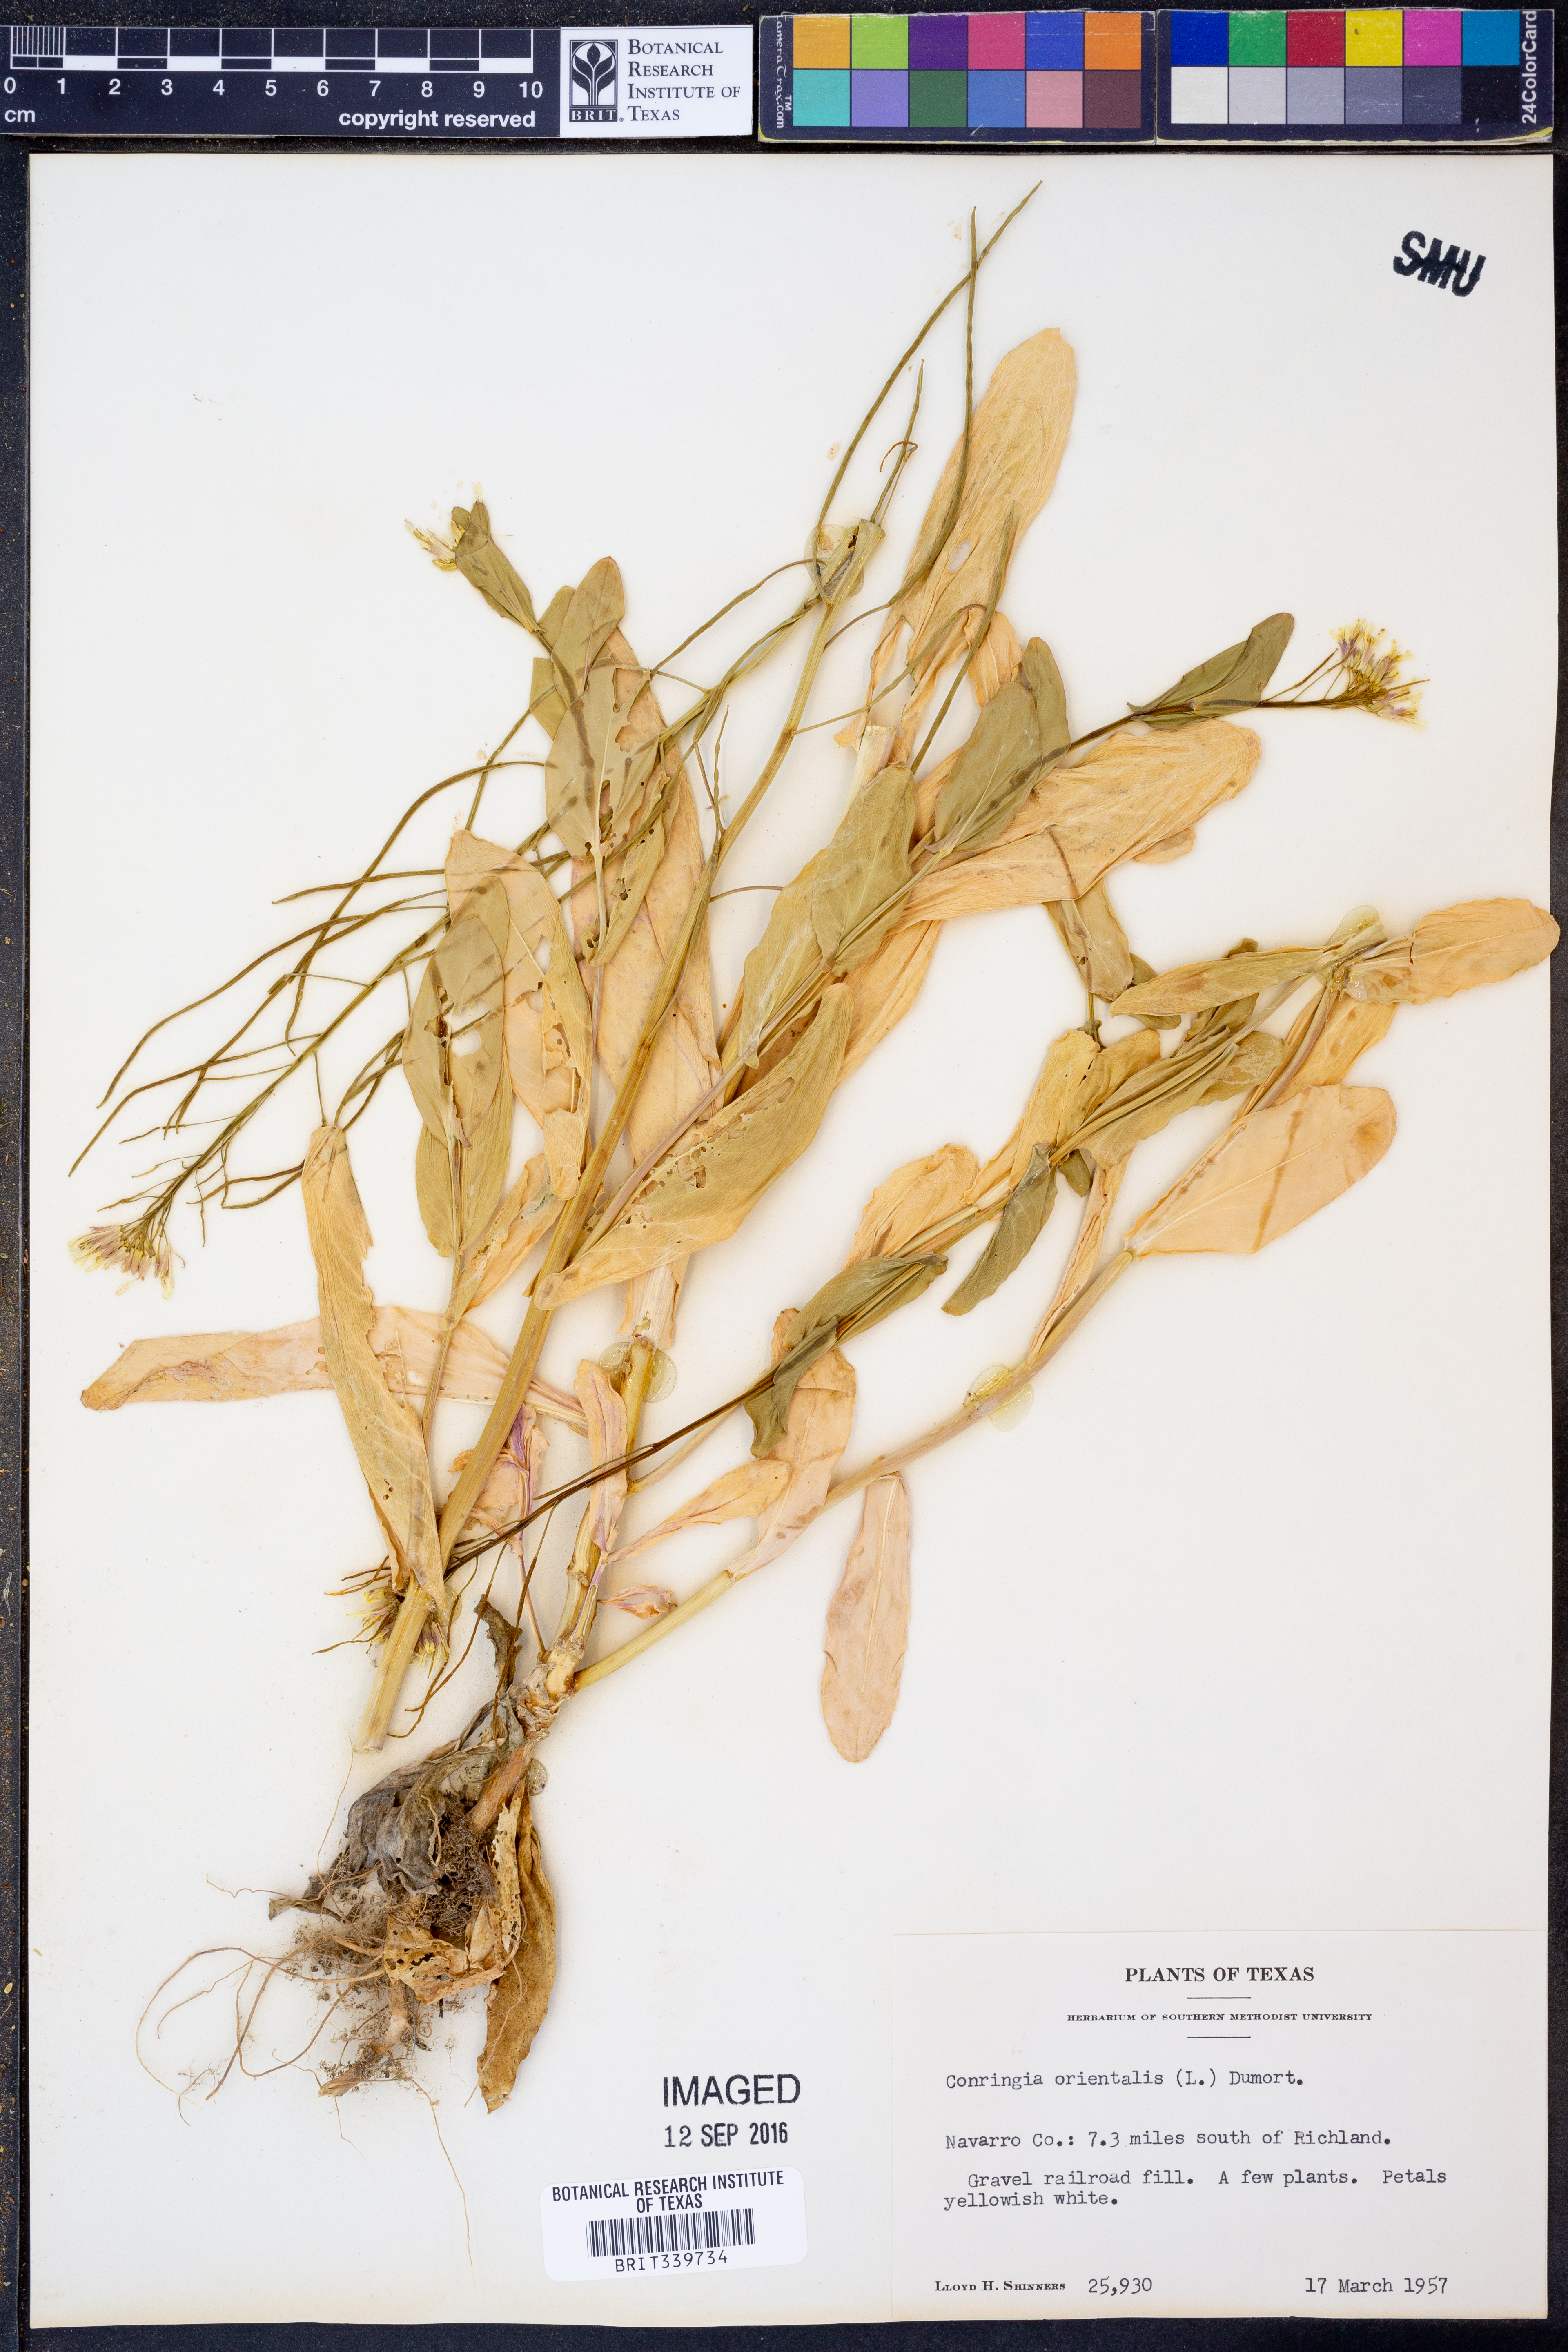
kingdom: Plantae
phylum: Tracheophyta
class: Magnoliopsida
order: Brassicales
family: Brassicaceae
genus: Conringia
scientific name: Conringia orientalis
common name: Hare's ear mustard
